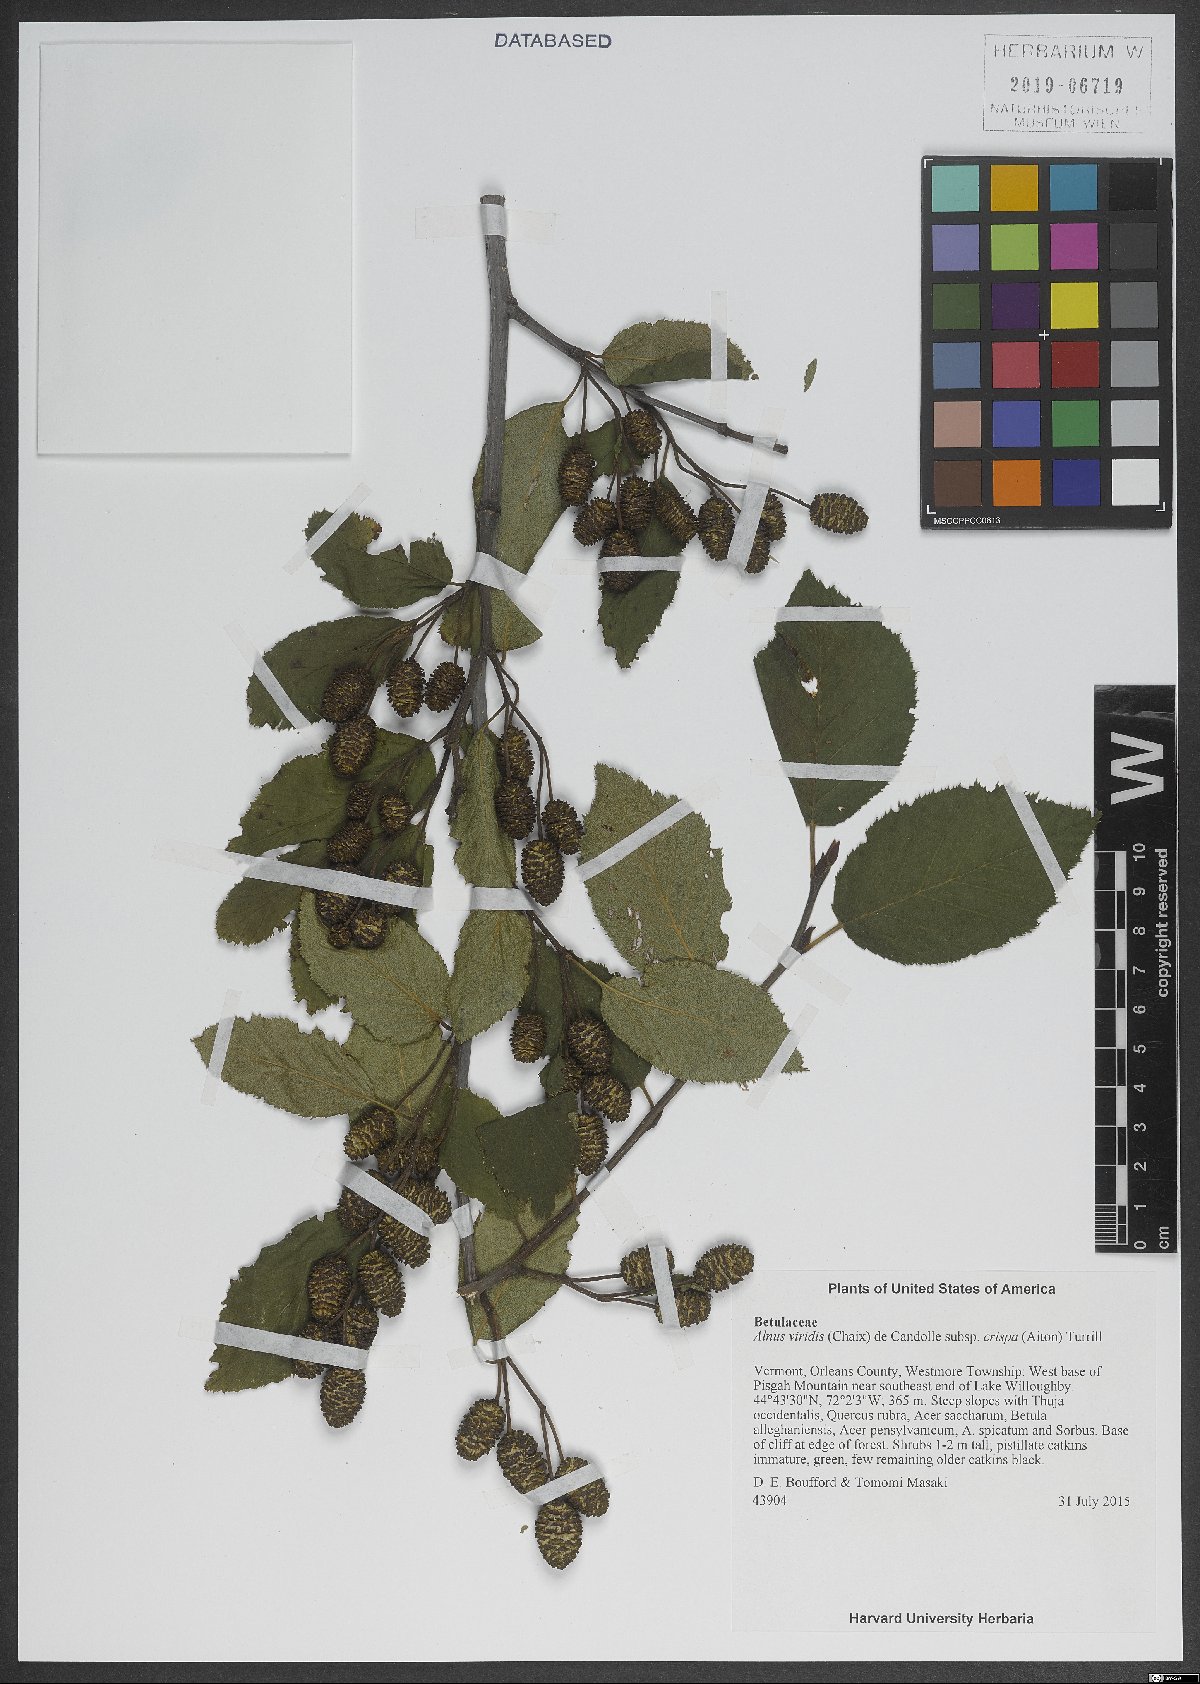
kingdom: Plantae
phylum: Tracheophyta
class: Magnoliopsida
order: Fagales
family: Betulaceae
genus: Alnus
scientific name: Alnus alnobetula
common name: Green alder
